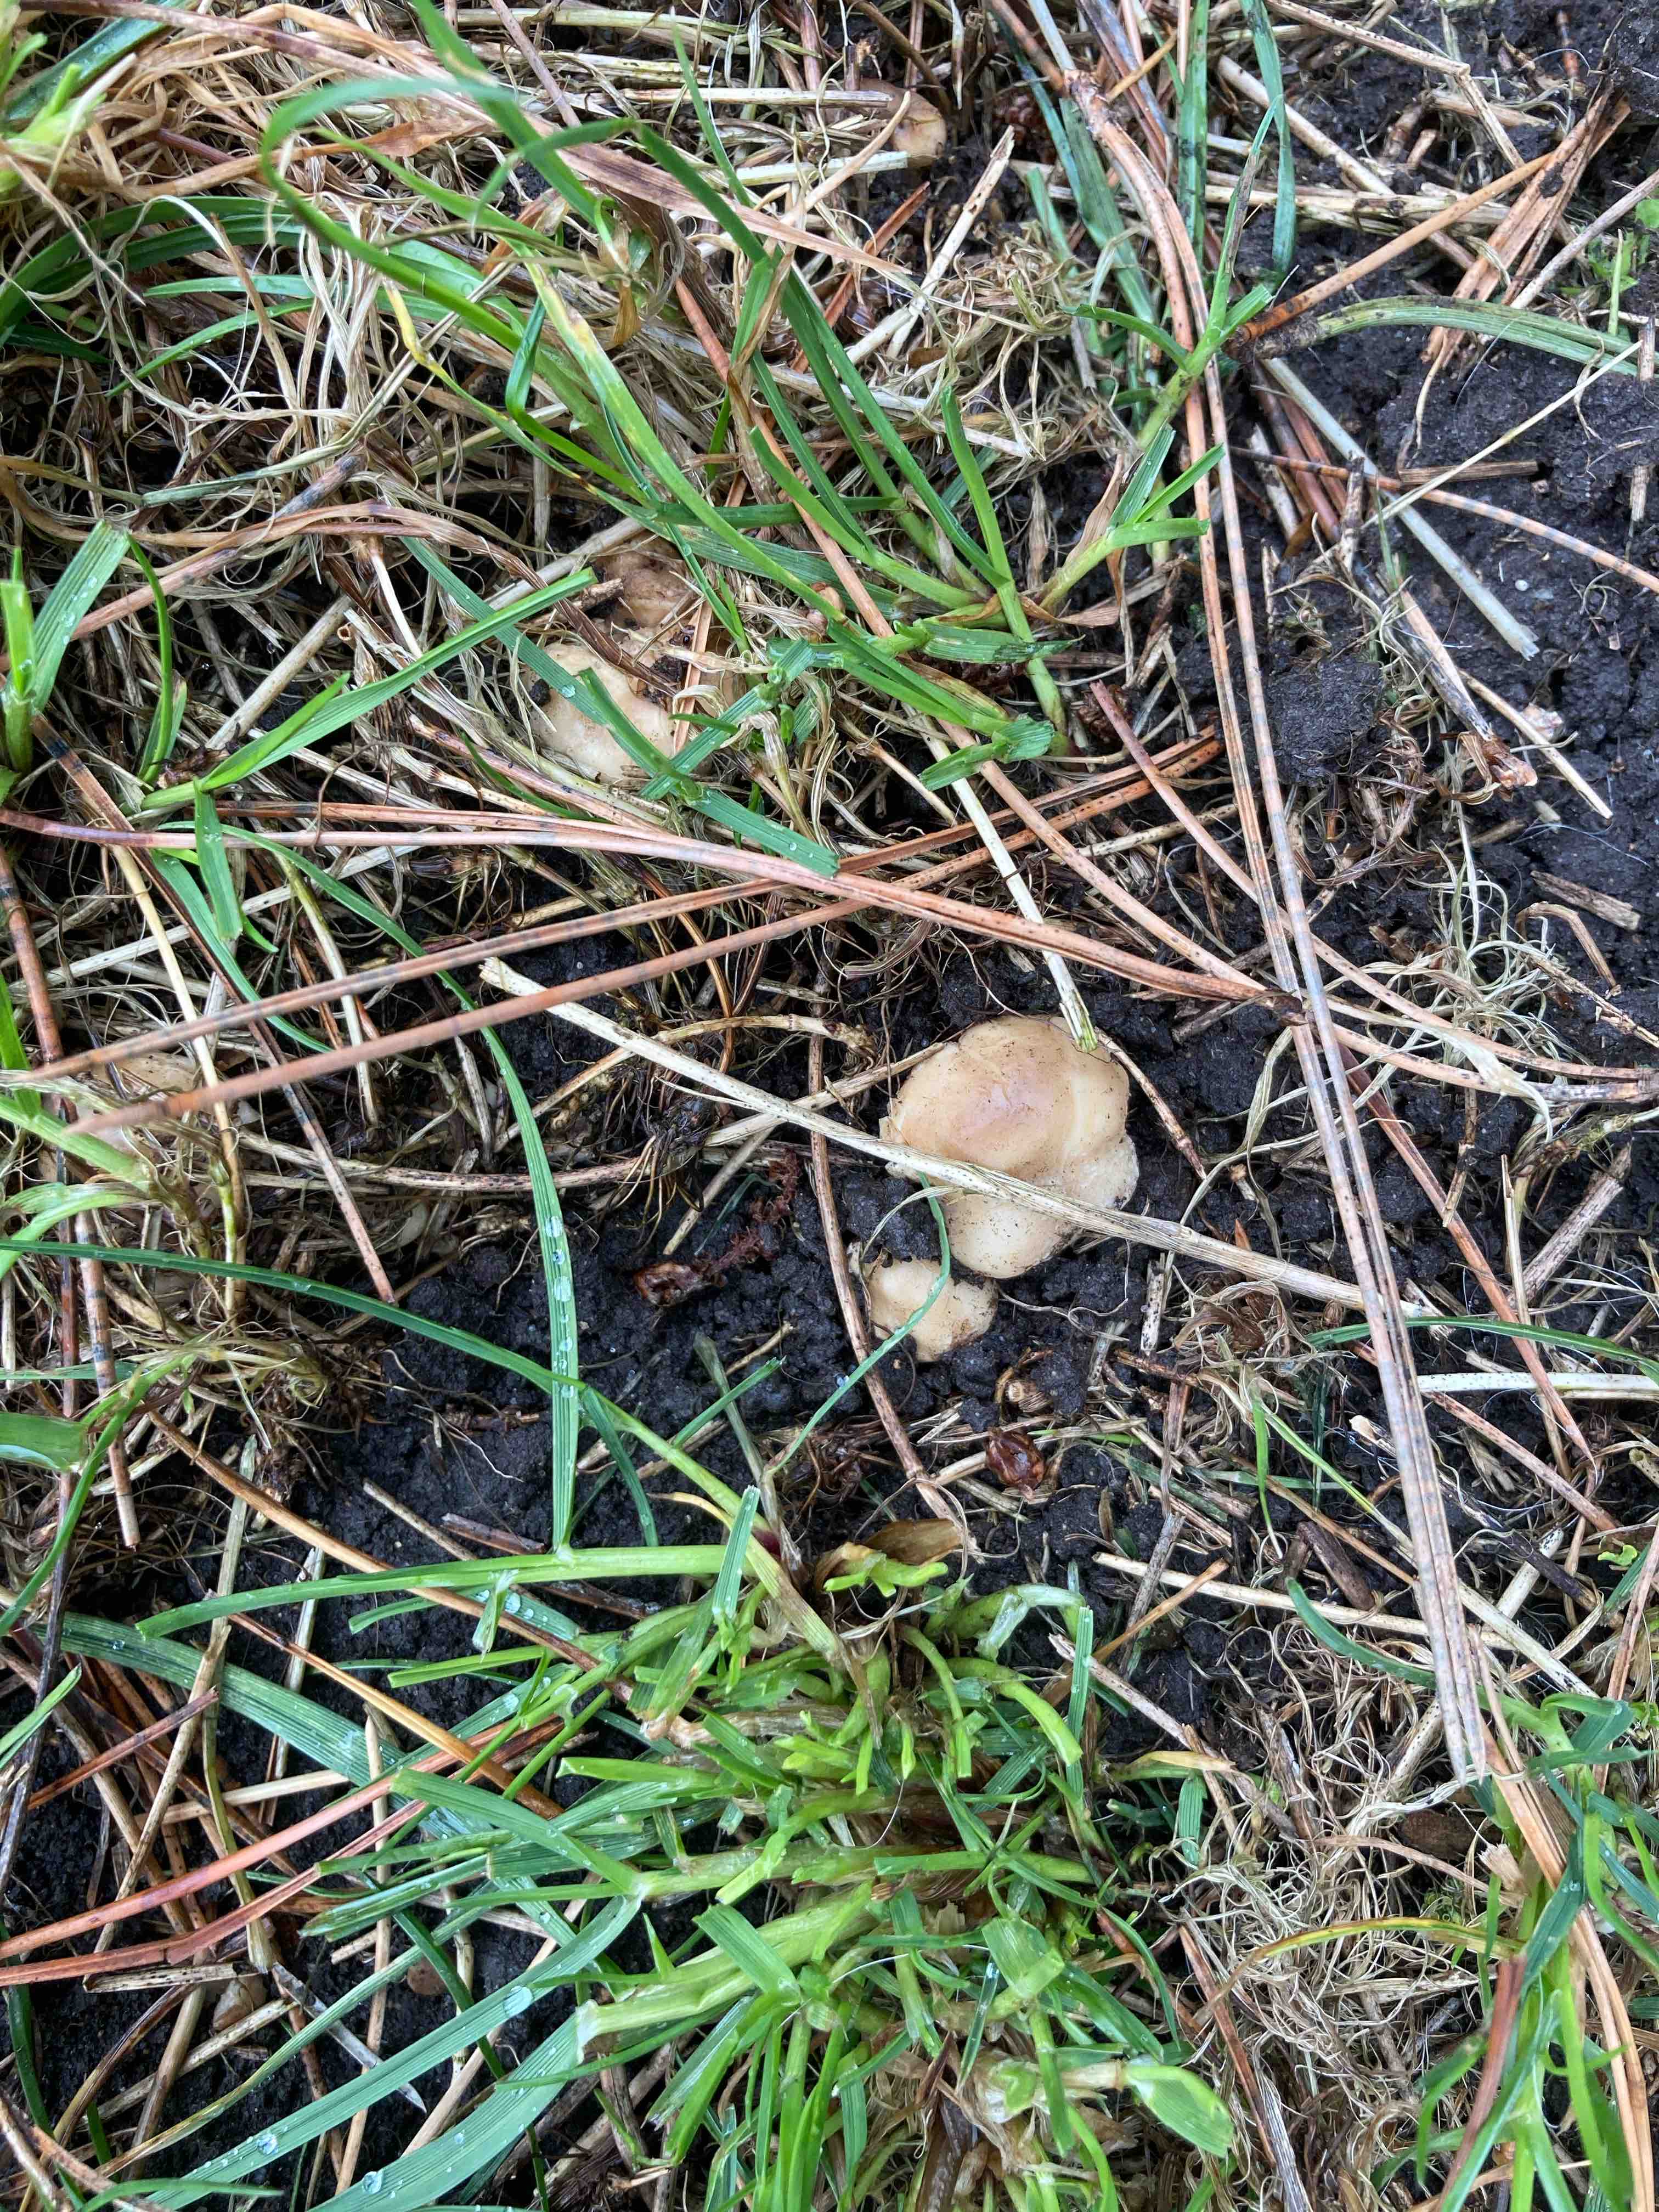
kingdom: Fungi
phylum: Basidiomycota
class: Agaricomycetes
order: Agaricales
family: Lyophyllaceae
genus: Calocybe
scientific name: Calocybe gambosa
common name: vårmusseron
